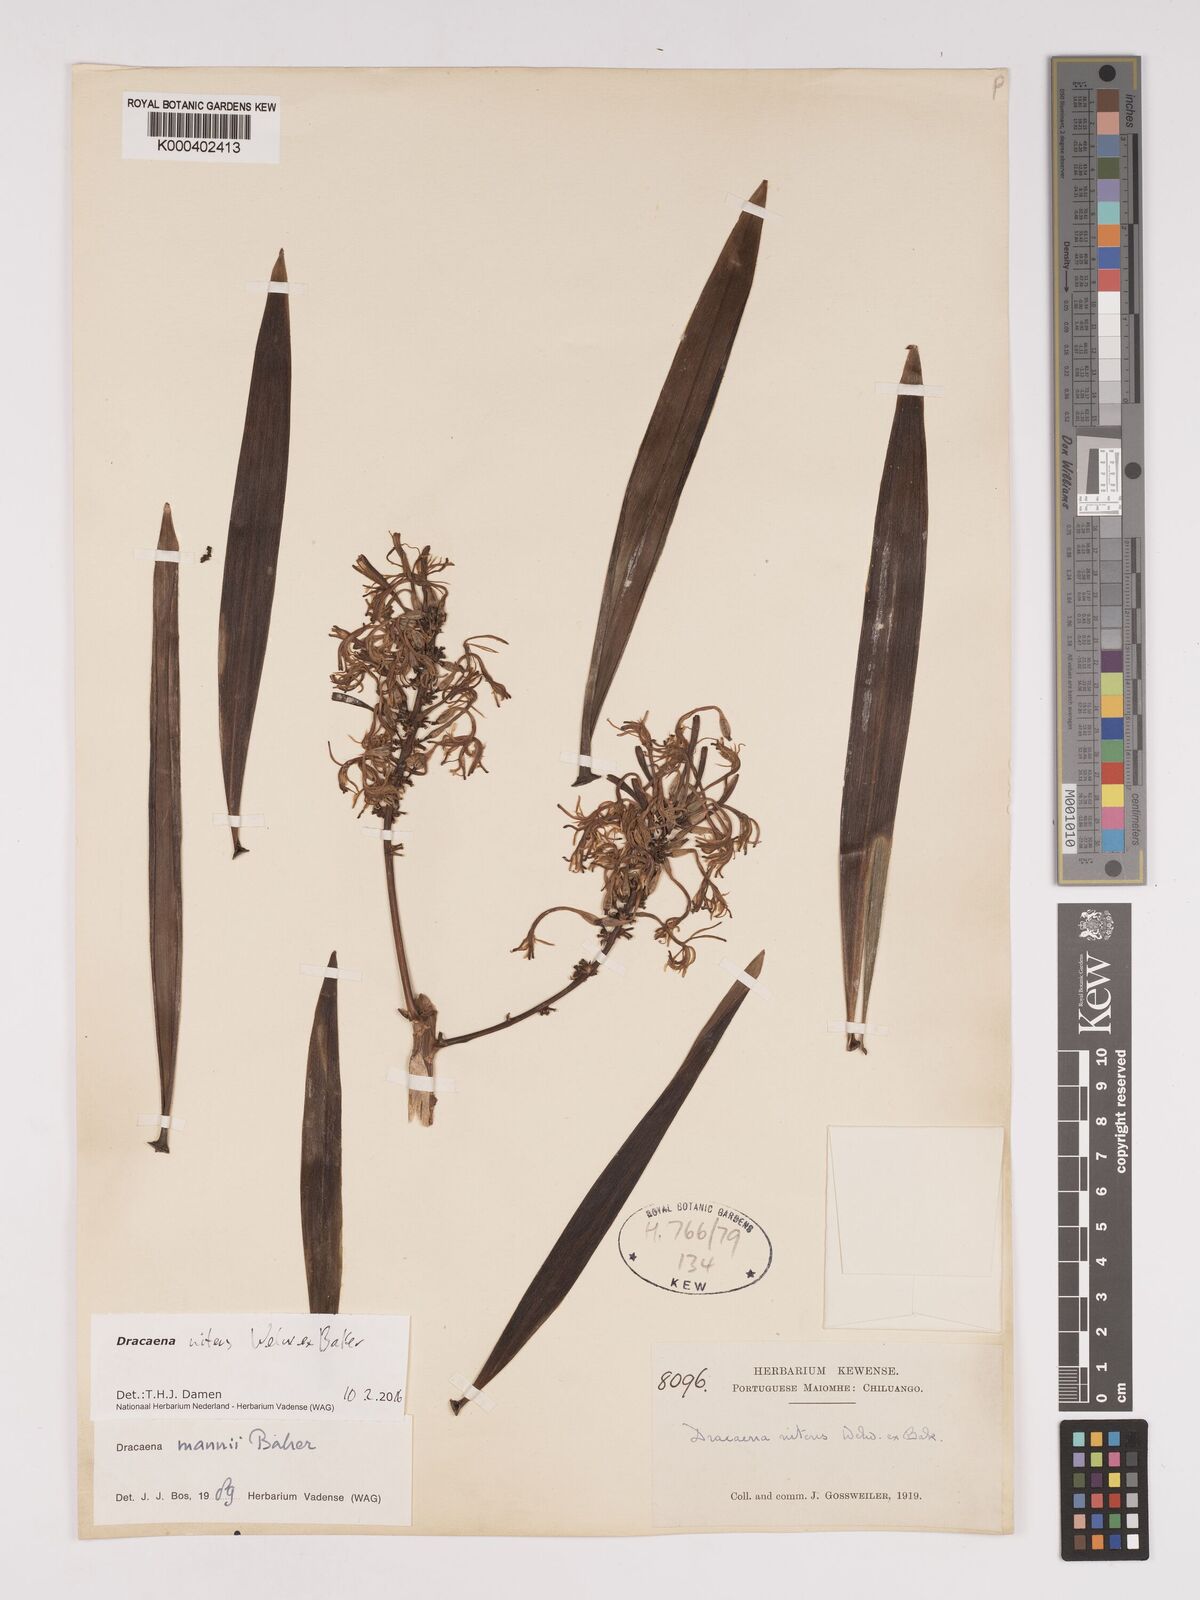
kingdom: Plantae
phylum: Tracheophyta
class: Liliopsida
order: Asparagales
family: Asparagaceae
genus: Dracaena
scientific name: Dracaena nitens
